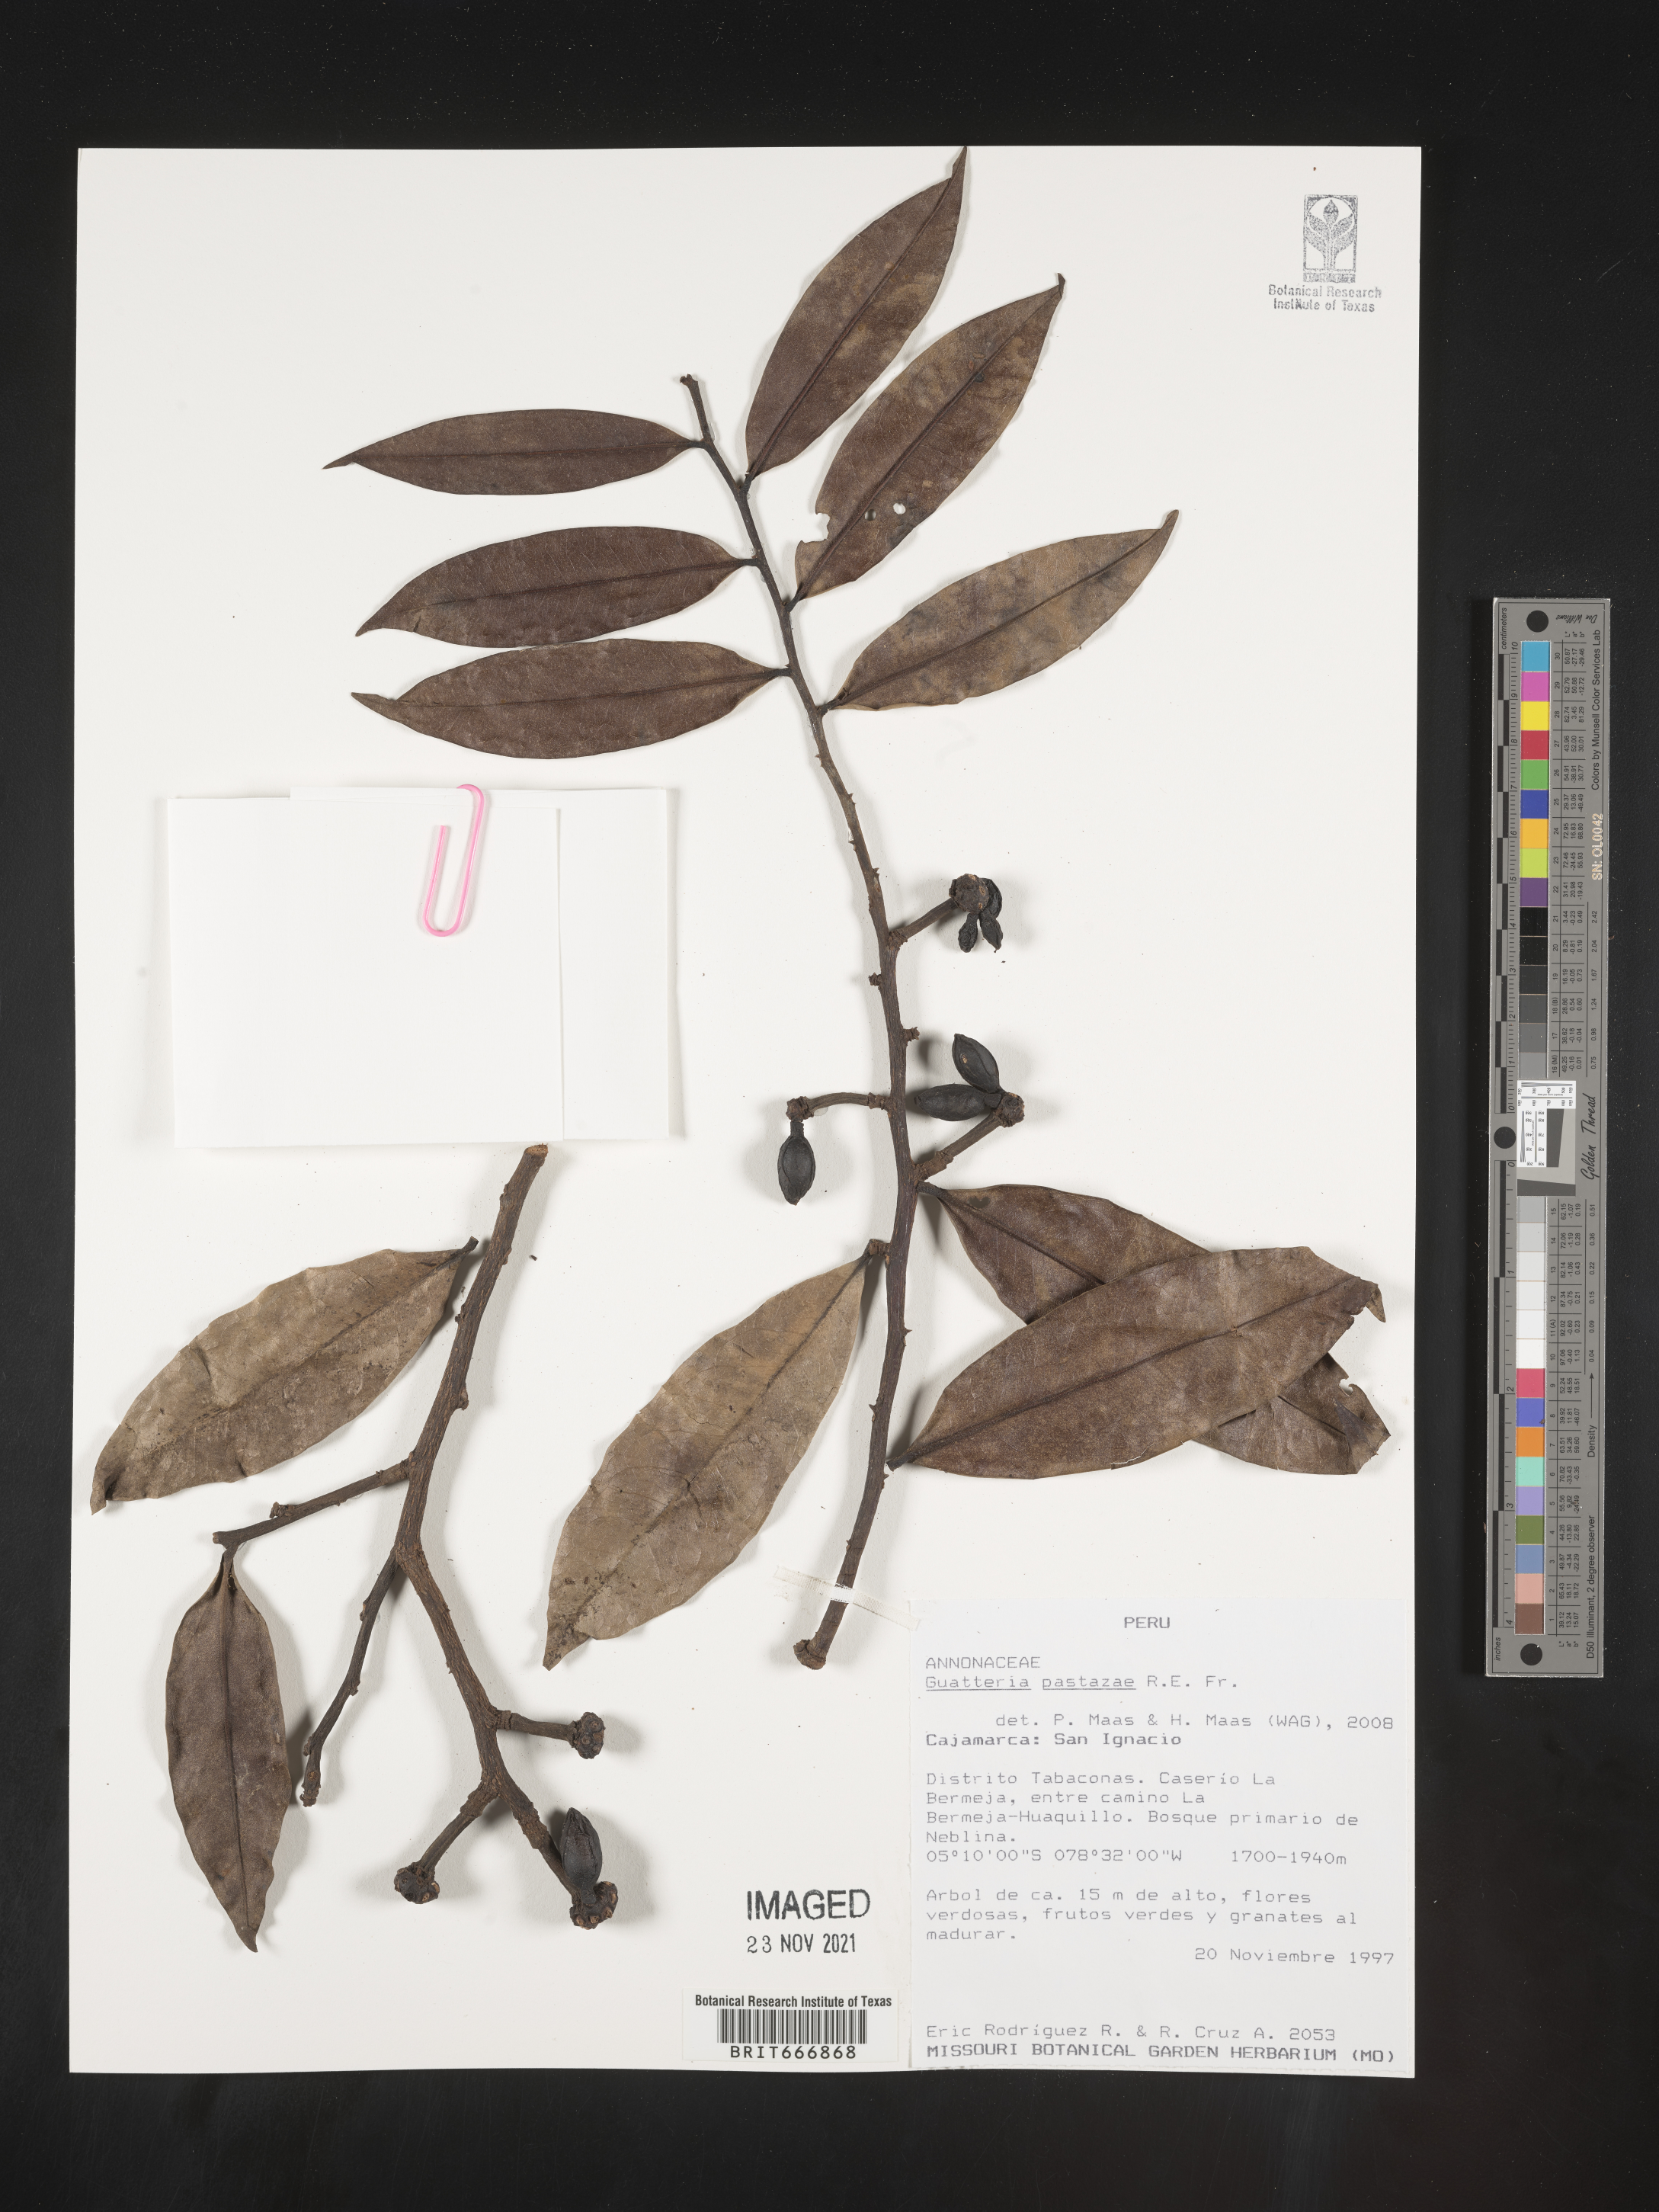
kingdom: Plantae
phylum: Tracheophyta
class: Magnoliopsida
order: Magnoliales
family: Annonaceae
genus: Guatteria
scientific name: Guatteria
